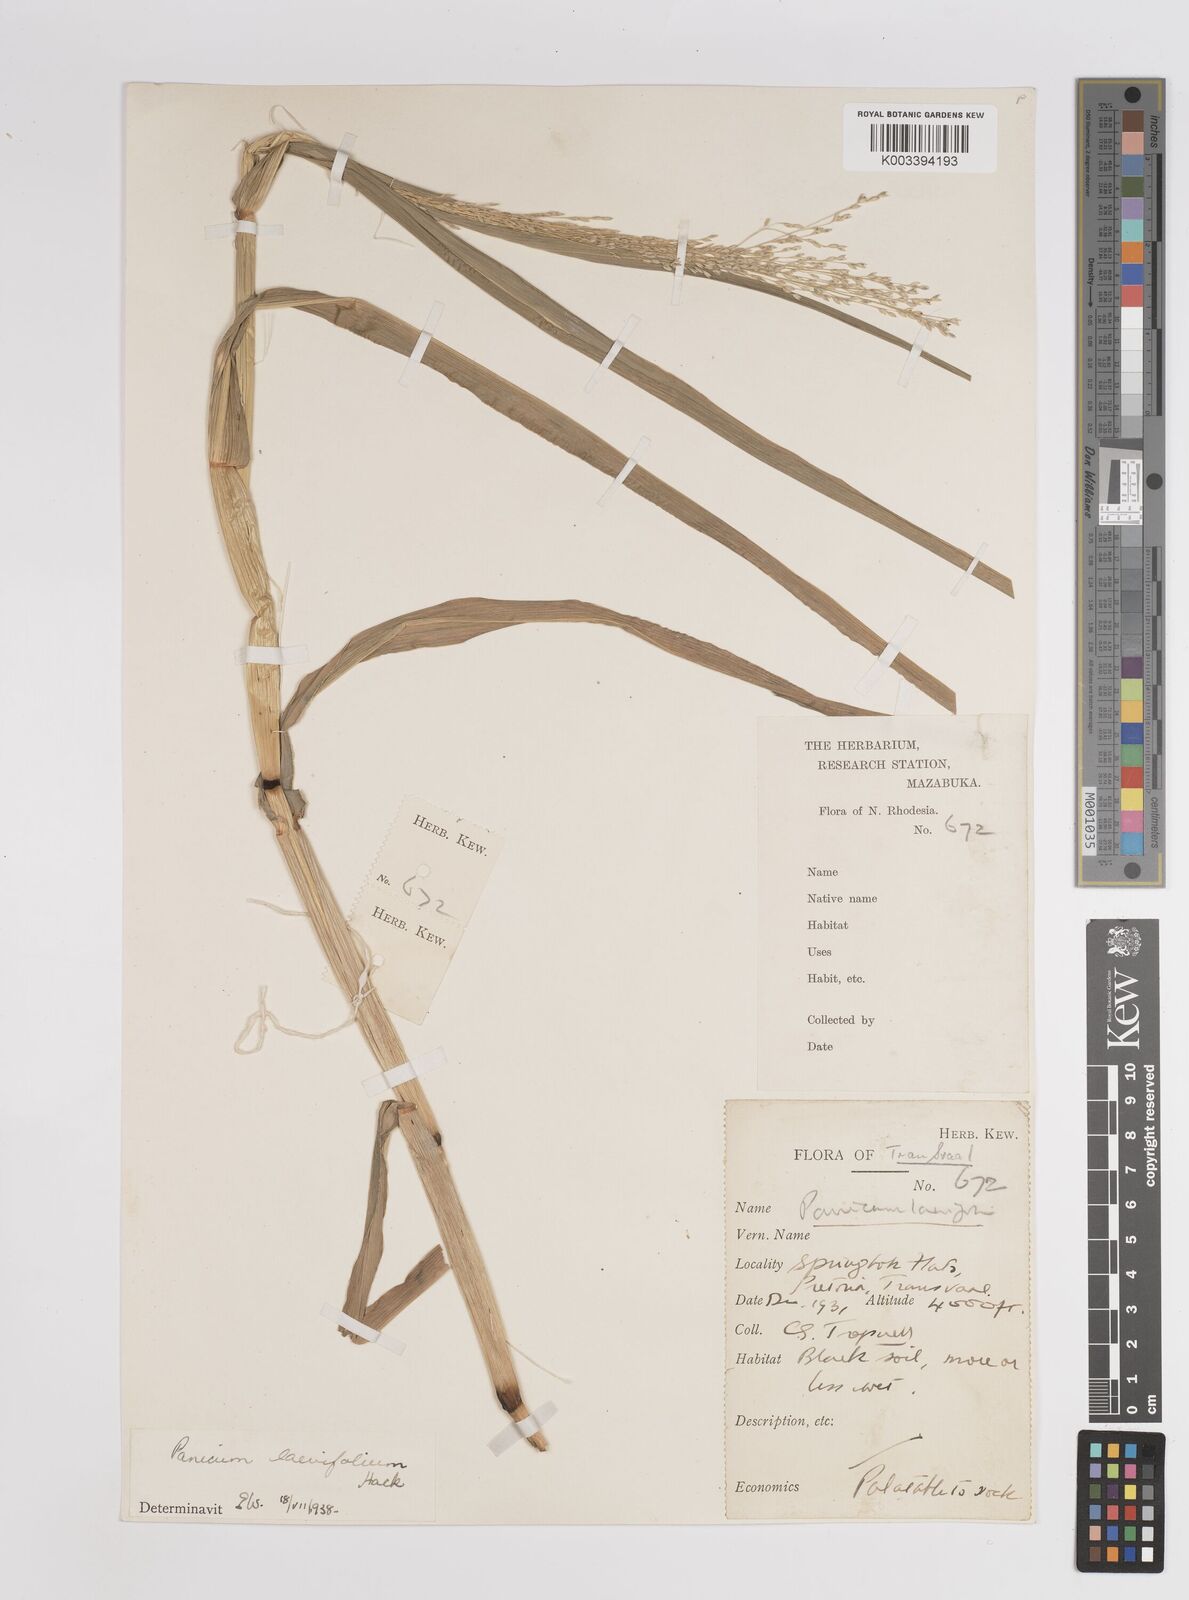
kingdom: Plantae
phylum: Tracheophyta
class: Liliopsida
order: Poales
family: Poaceae
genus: Panicum
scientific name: Panicum schinzii
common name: Sweet grass
